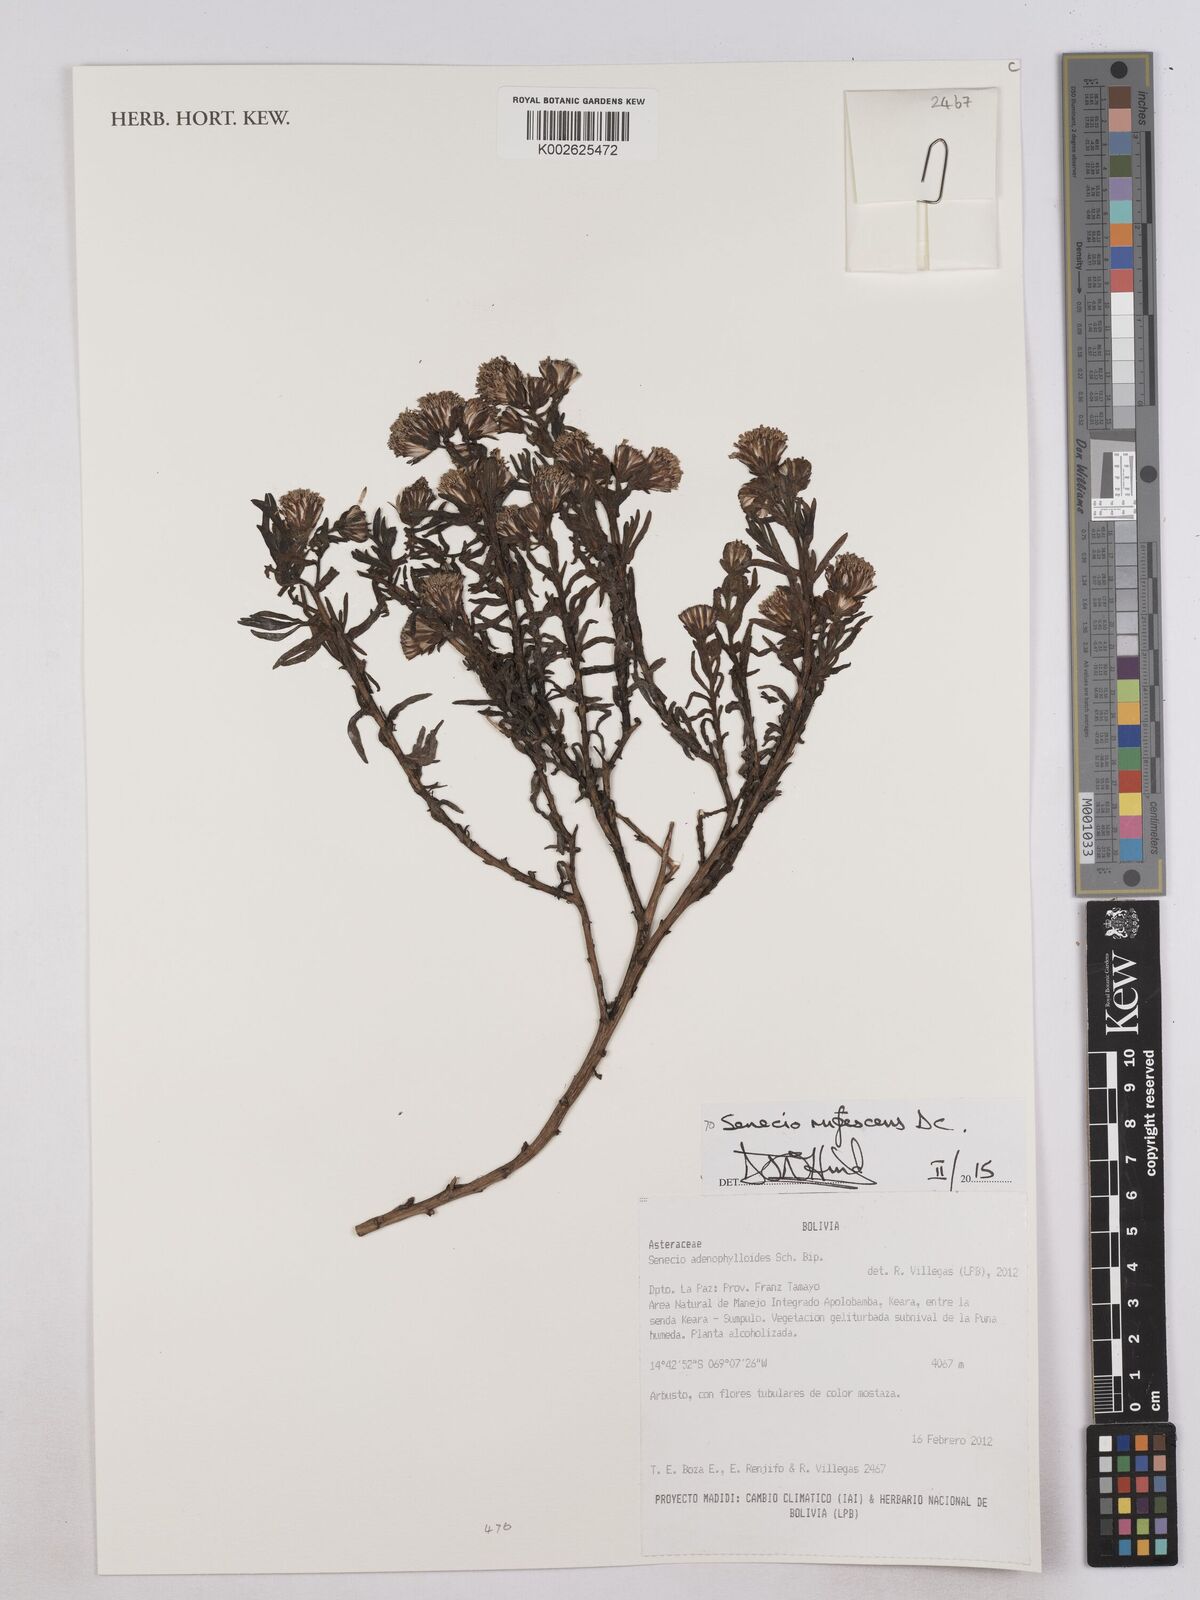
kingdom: Plantae
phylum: Tracheophyta
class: Magnoliopsida
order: Asterales
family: Asteraceae
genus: Culcitium
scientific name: Culcitium canescens
